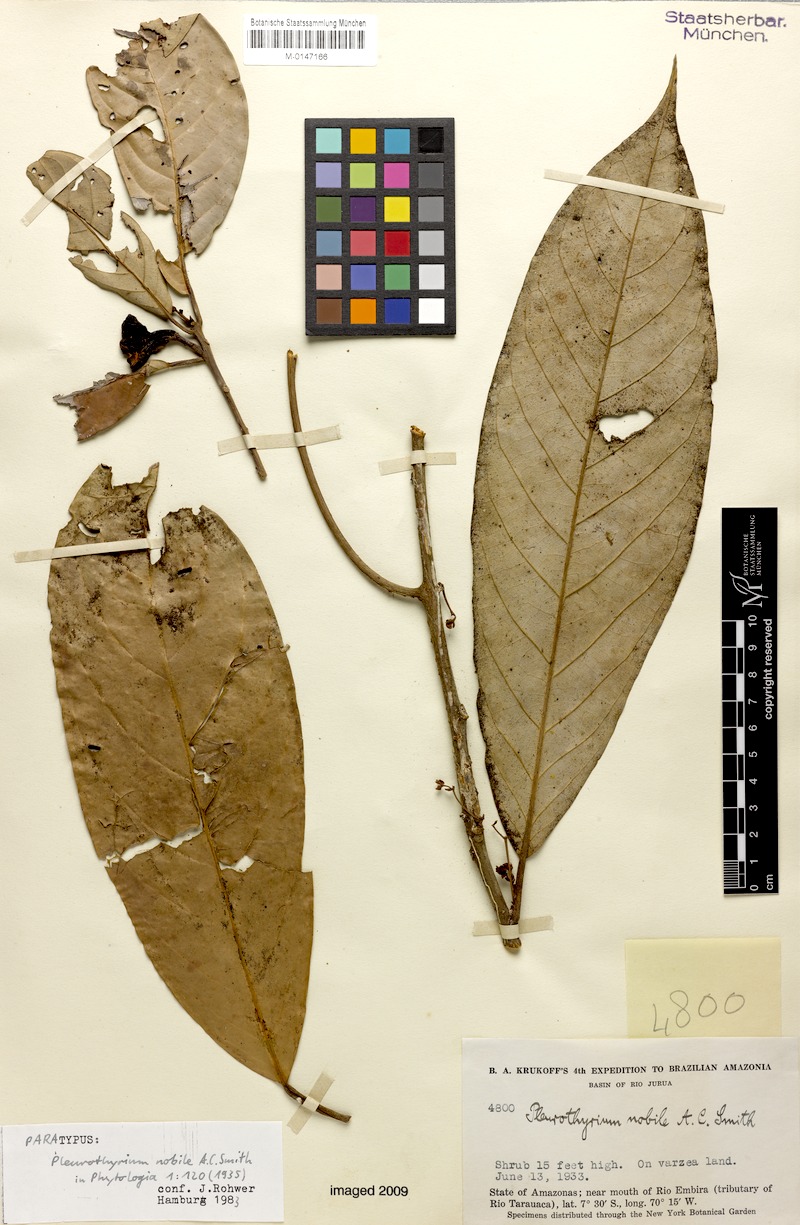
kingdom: Plantae
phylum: Tracheophyta
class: Magnoliopsida
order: Laurales
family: Lauraceae
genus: Ocotea
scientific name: Ocotea nobilis
